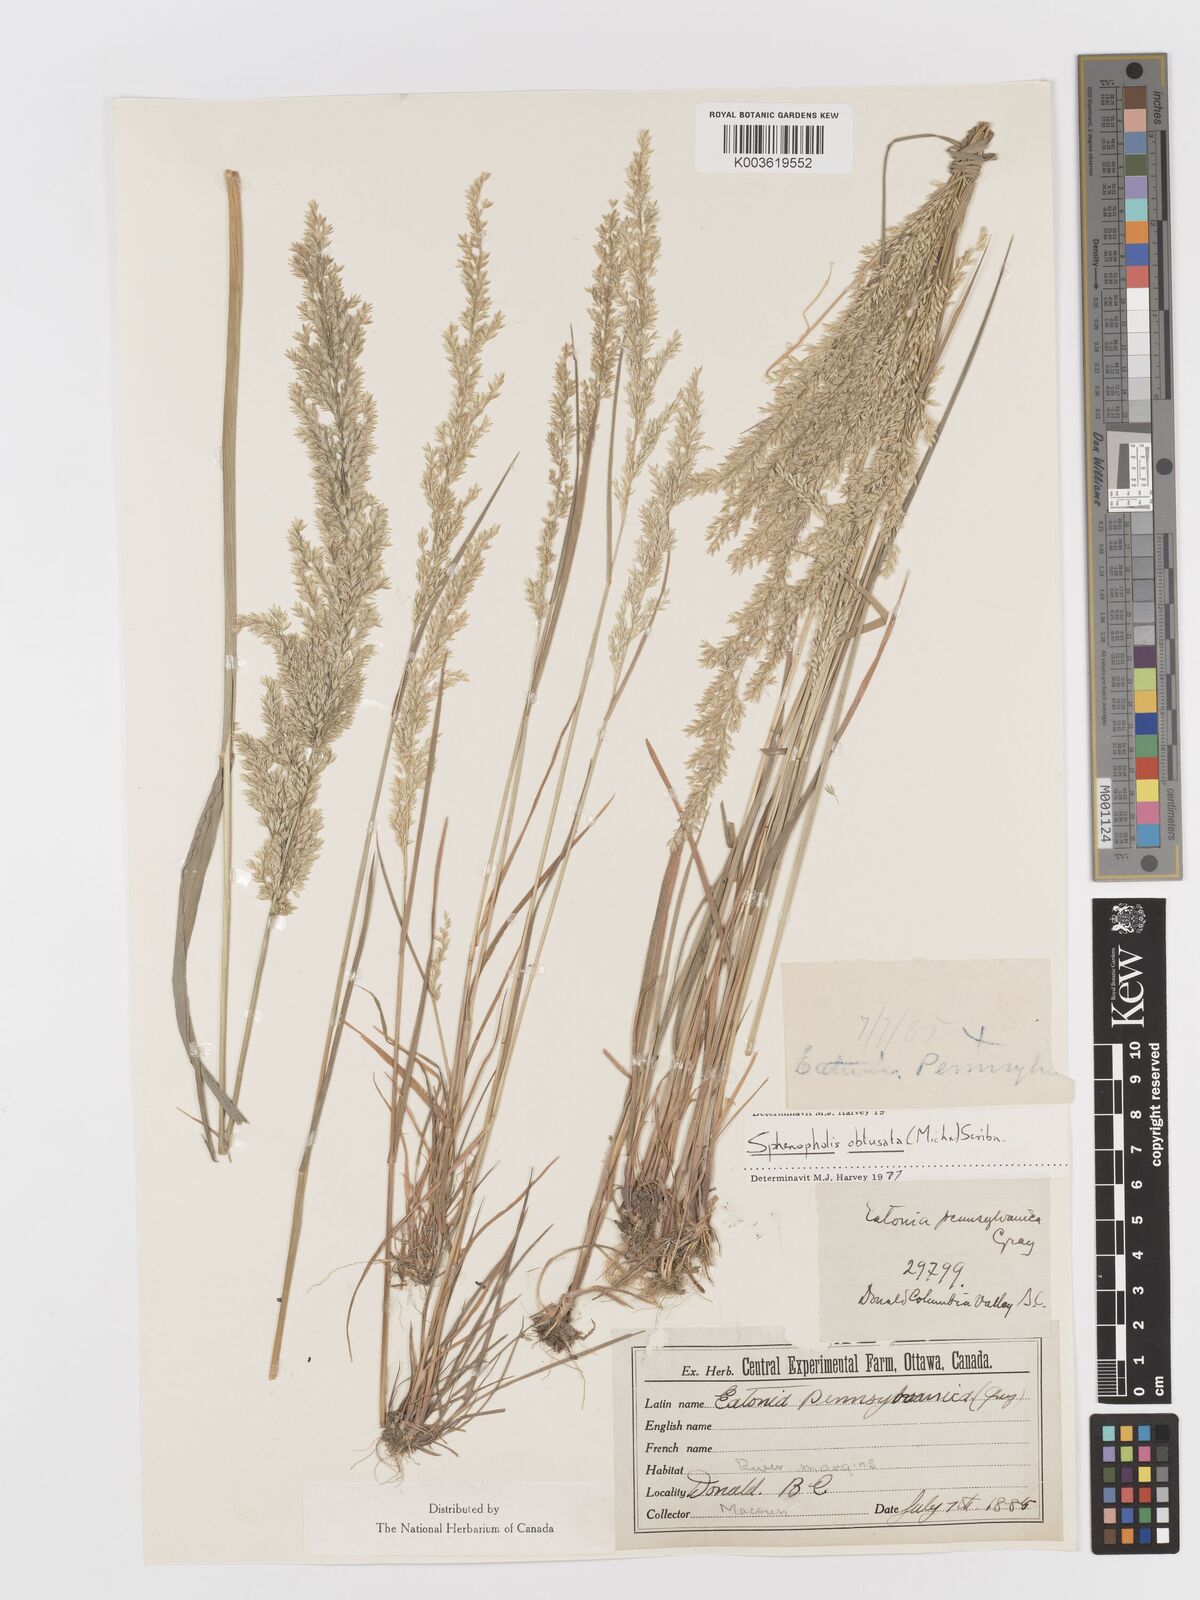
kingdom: Plantae
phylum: Tracheophyta
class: Liliopsida
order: Poales
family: Poaceae
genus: Sphenopholis
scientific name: Sphenopholis obtusata
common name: Prairie grass
